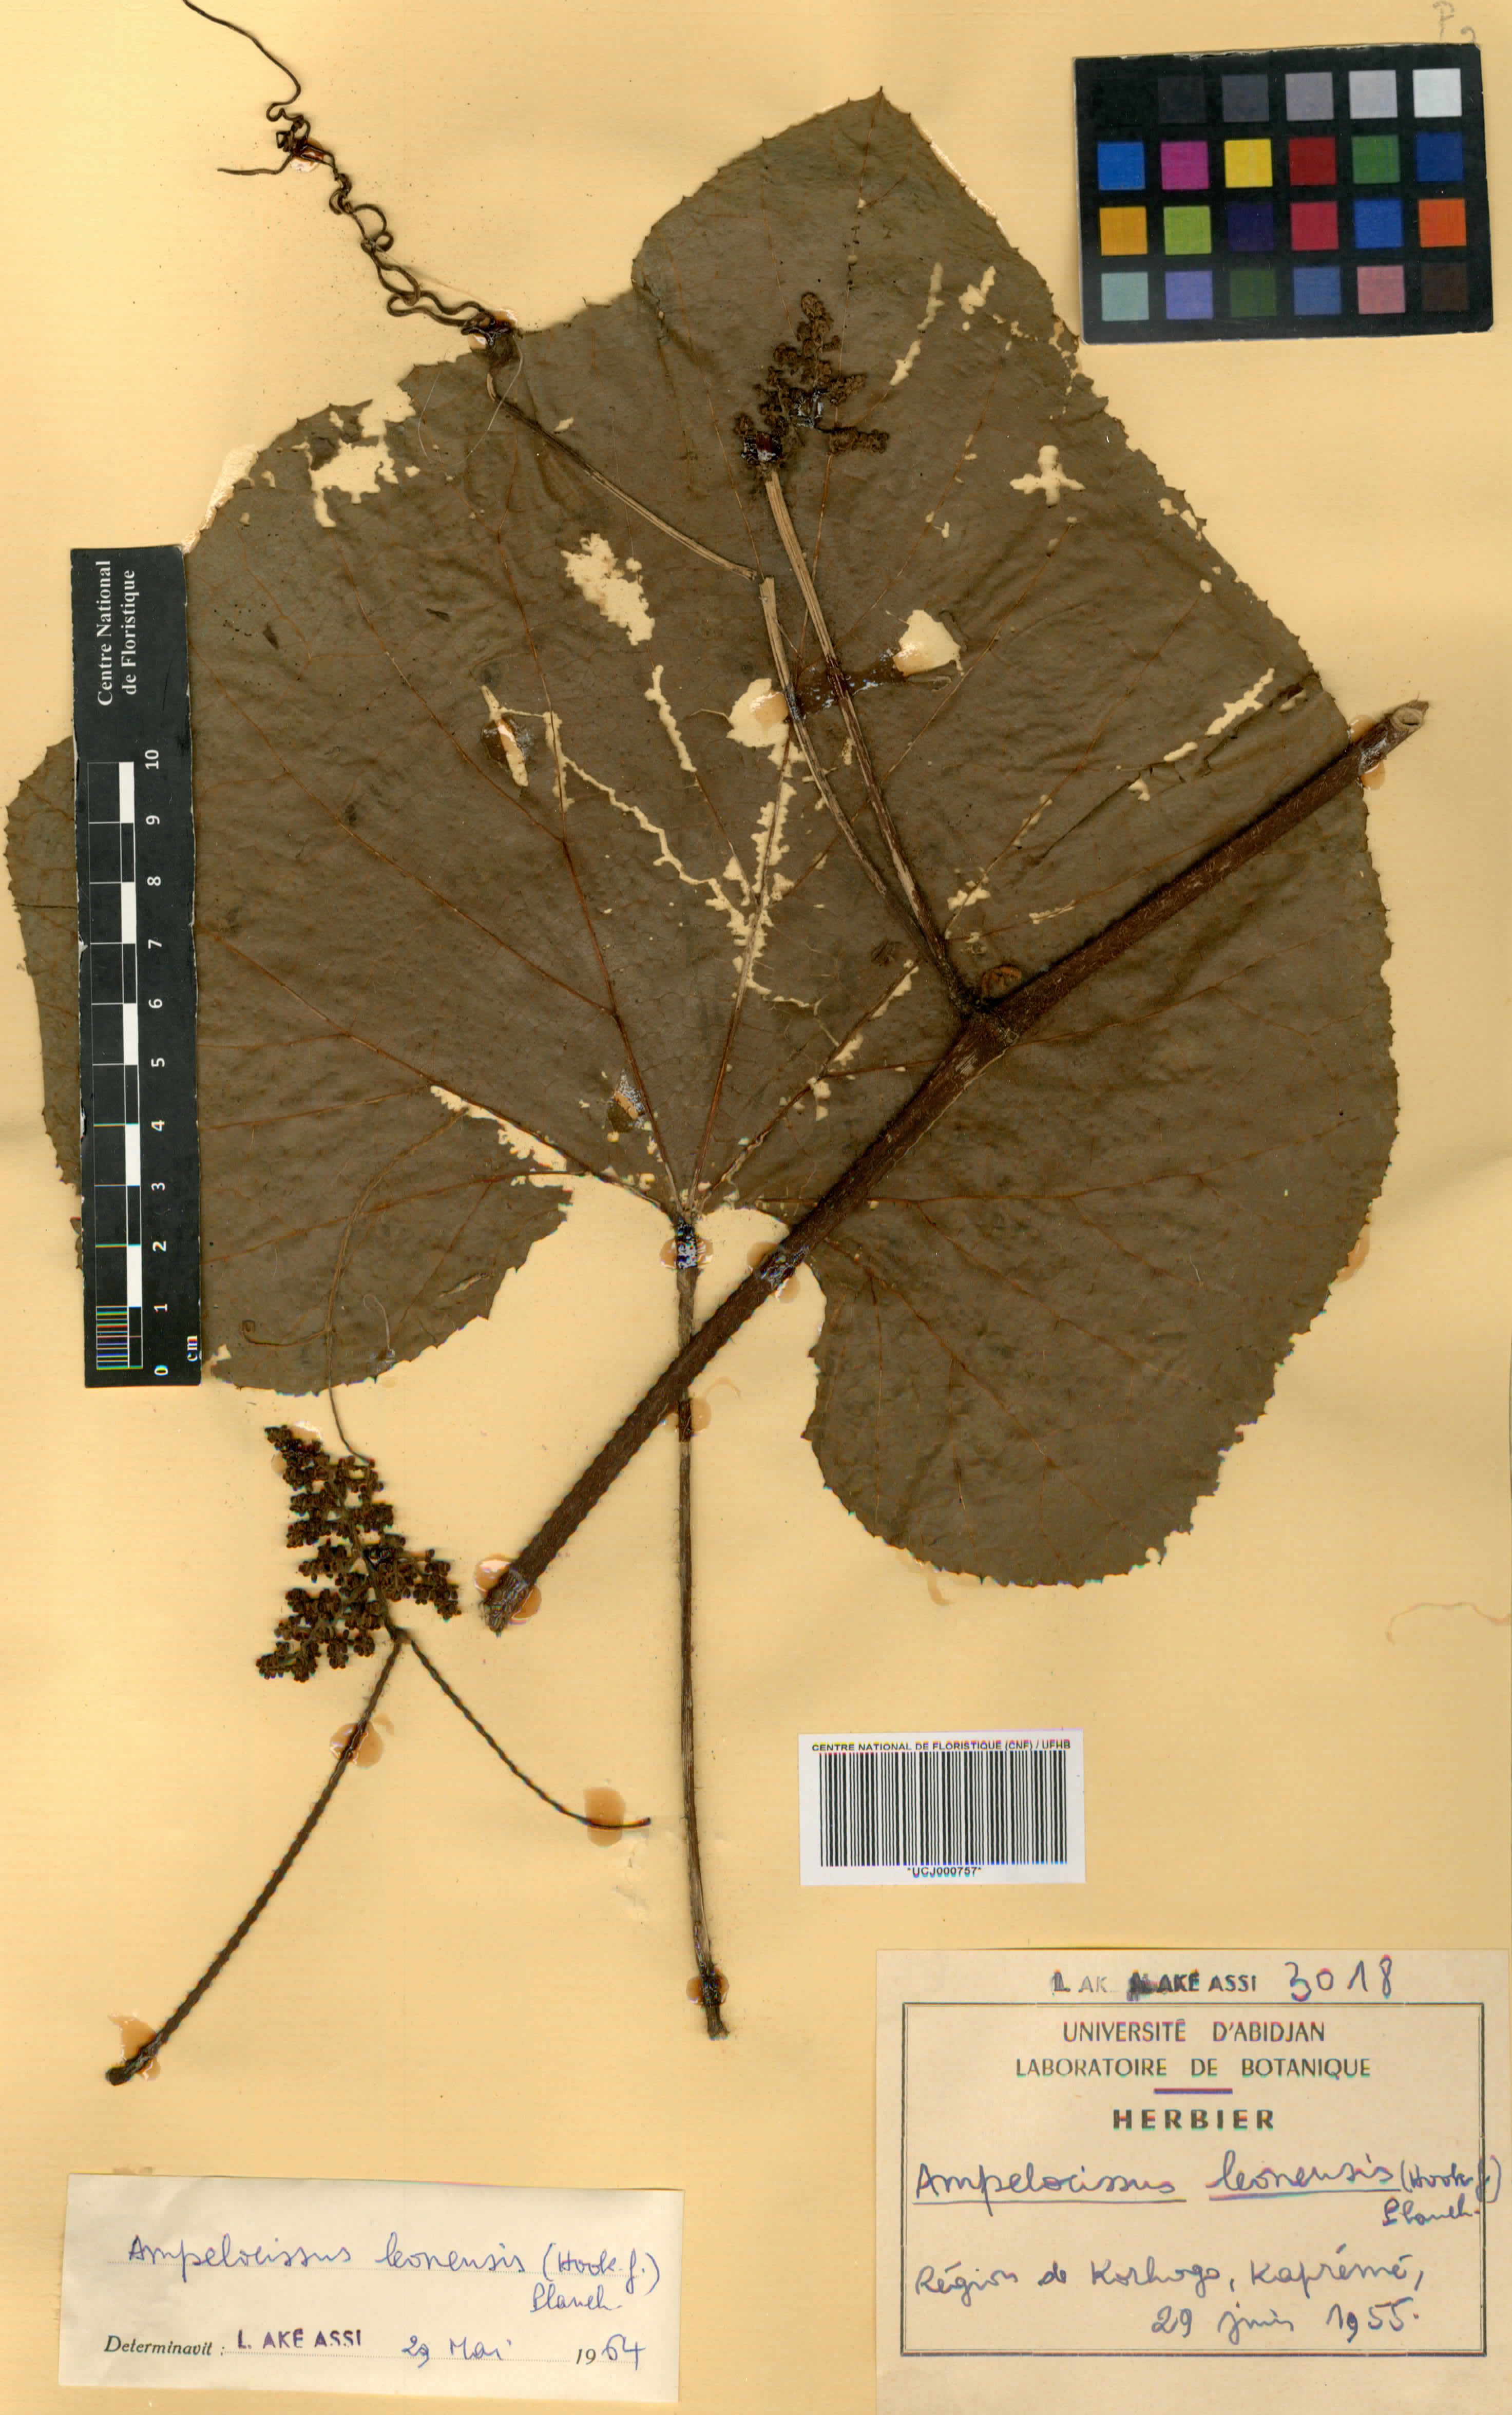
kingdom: Plantae
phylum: Tracheophyta
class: Magnoliopsida
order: Vitales
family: Vitaceae
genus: Ampelocissus
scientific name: Ampelocissus leonensis
